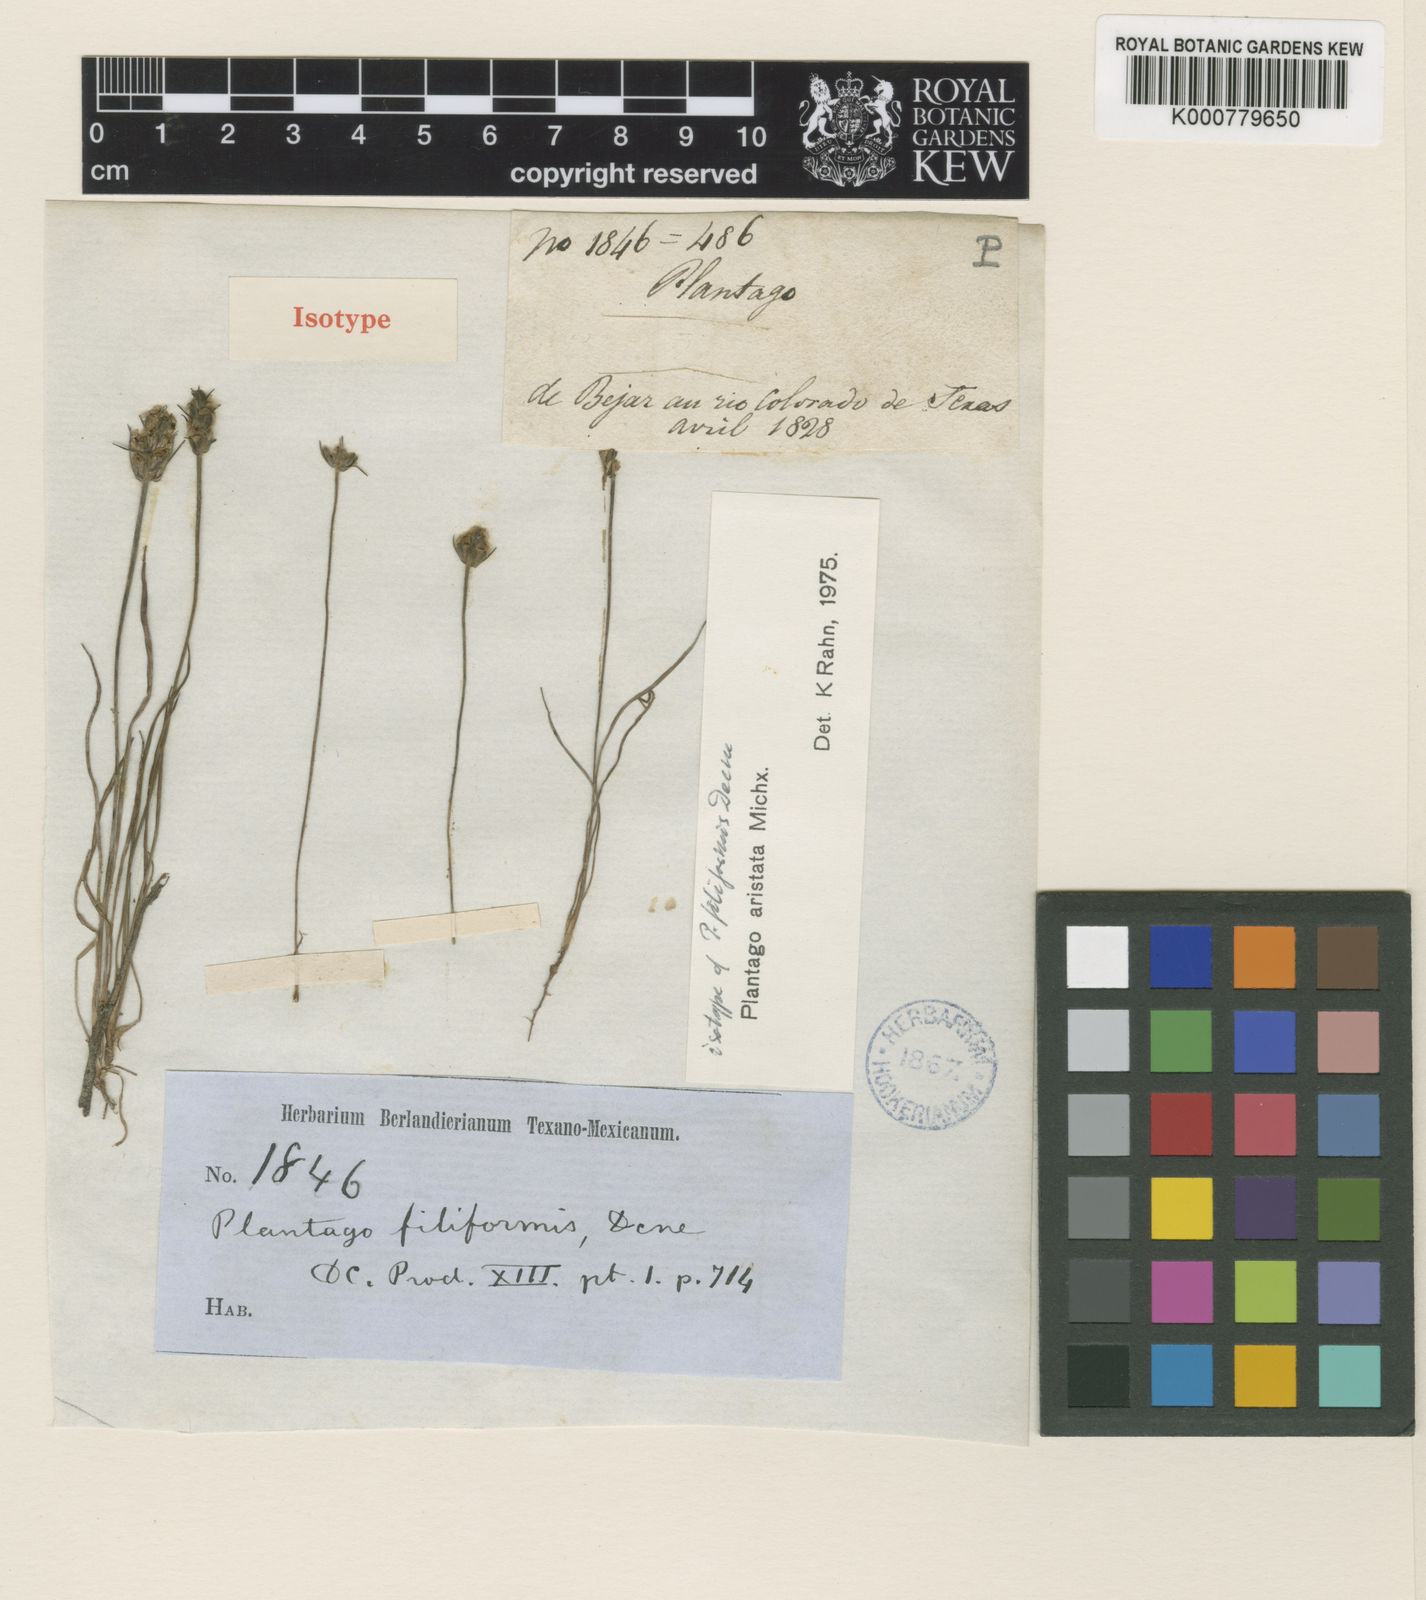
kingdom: Plantae
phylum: Tracheophyta
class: Magnoliopsida
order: Lamiales
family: Plantaginaceae
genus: Plantago
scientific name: Plantago aristata
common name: Bracted plantain
